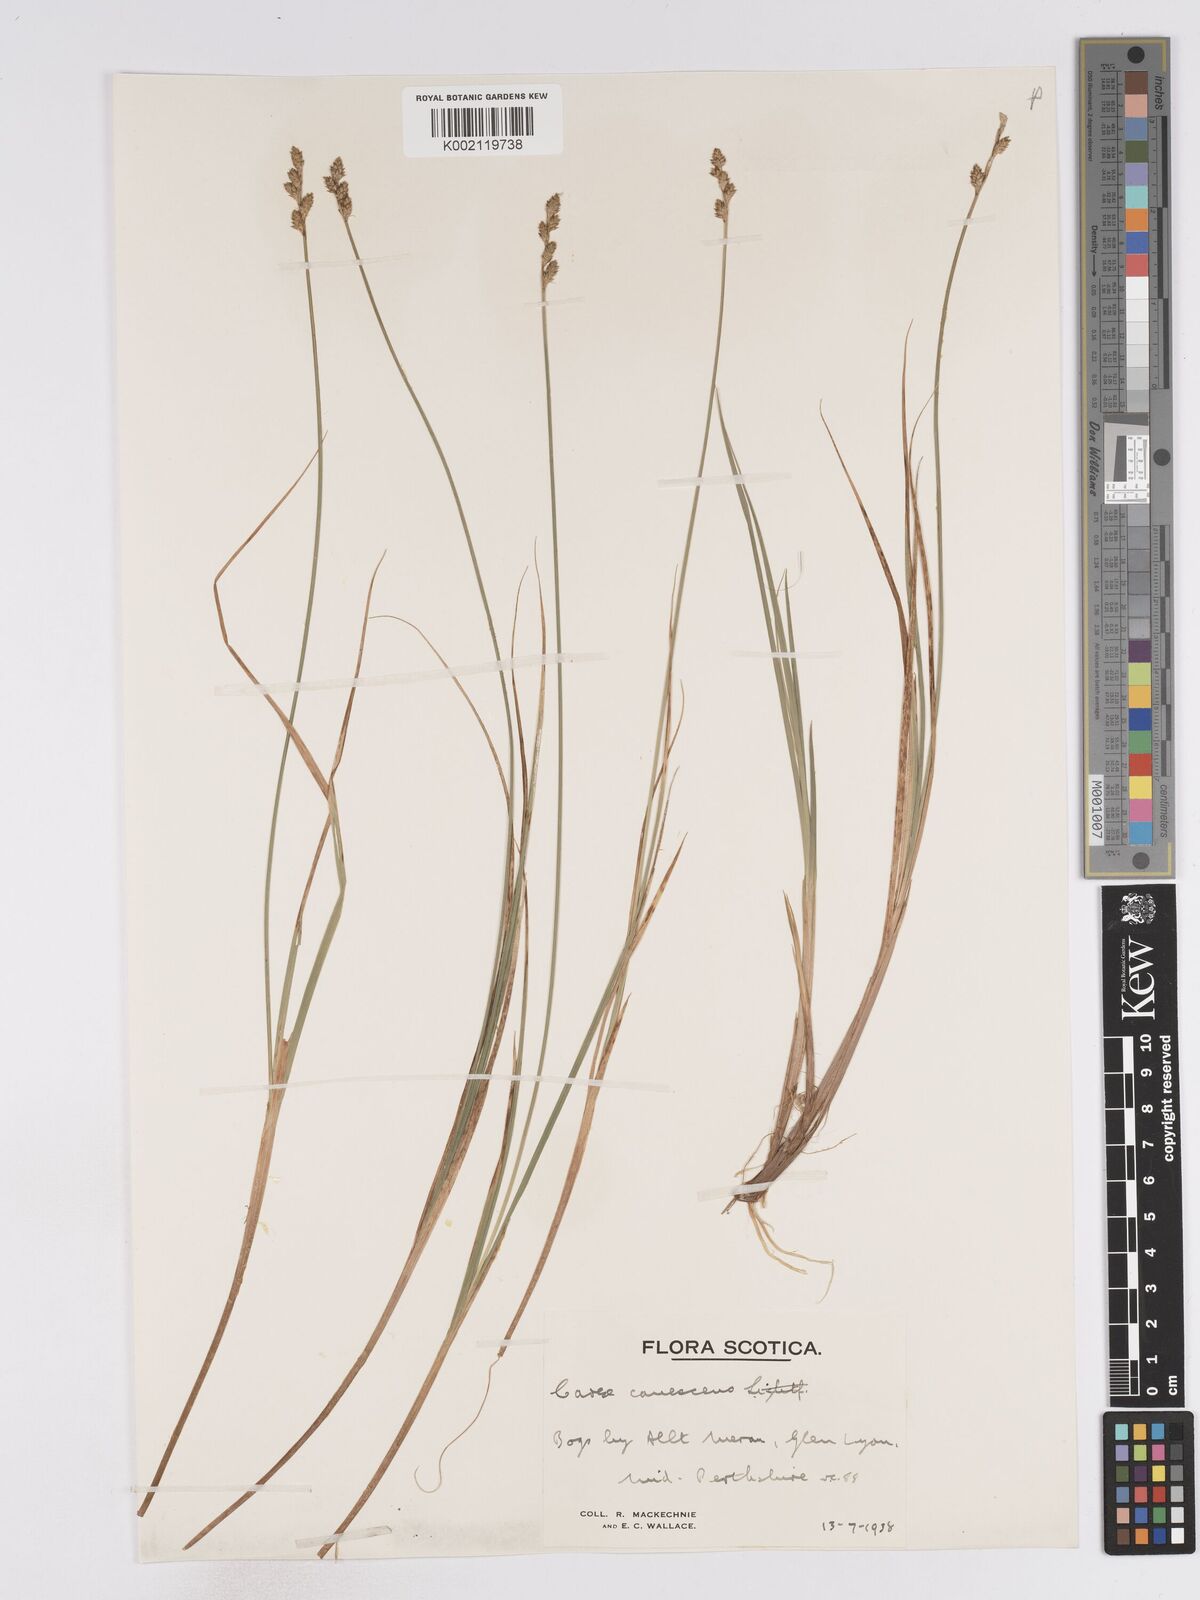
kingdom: Plantae
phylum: Tracheophyta
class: Liliopsida
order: Poales
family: Cyperaceae
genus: Carex
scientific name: Carex curta
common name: White sedge
